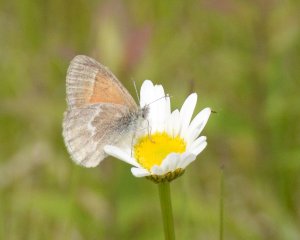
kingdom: Animalia
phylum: Arthropoda
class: Insecta
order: Lepidoptera
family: Nymphalidae
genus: Coenonympha
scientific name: Coenonympha tullia
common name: Large Heath
